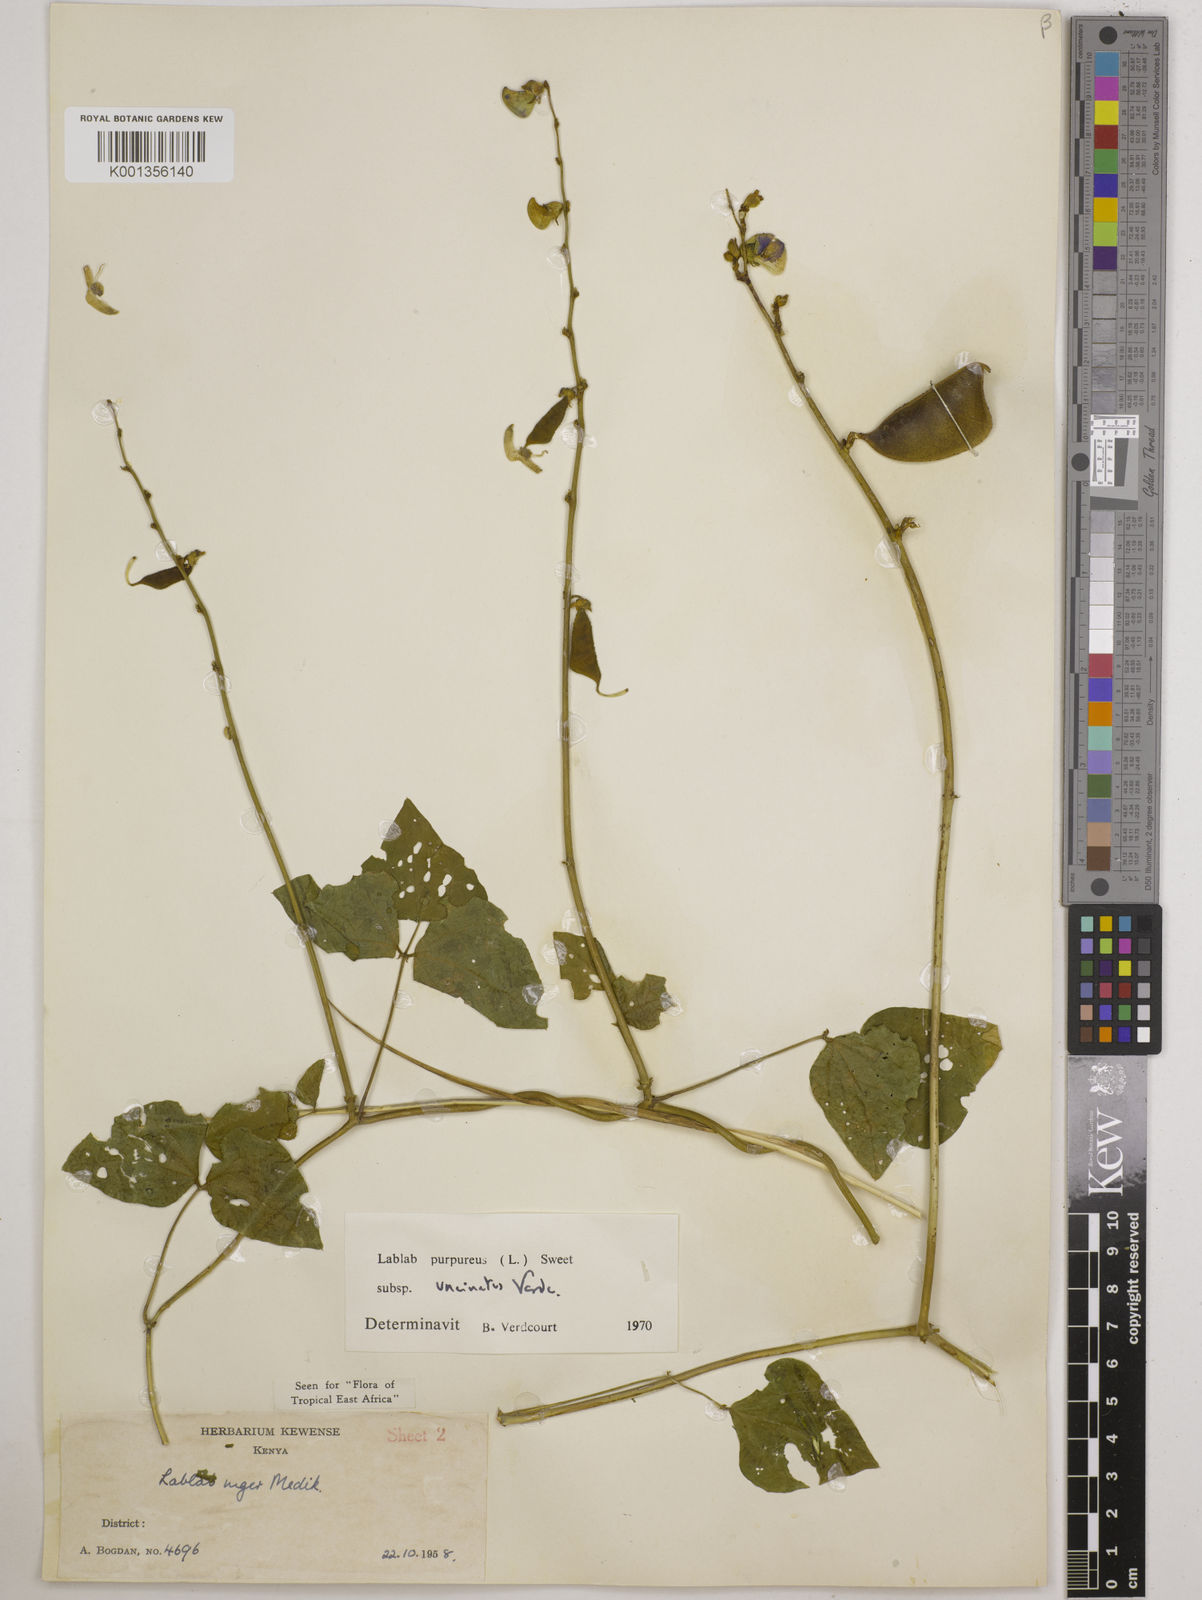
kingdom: Plantae
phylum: Tracheophyta
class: Magnoliopsida
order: Fabales
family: Fabaceae
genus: Lablab
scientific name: Lablab purpureus
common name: Lablab-bean
